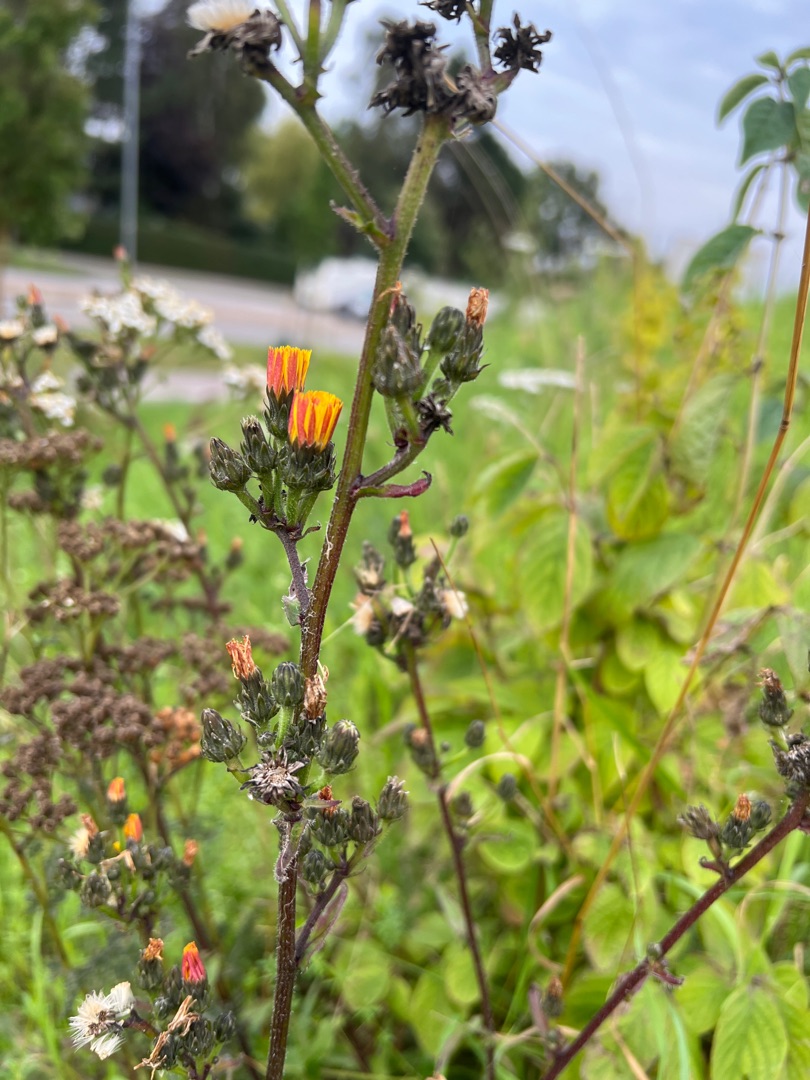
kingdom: Plantae
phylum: Tracheophyta
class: Magnoliopsida
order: Asterales
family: Asteraceae
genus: Picris
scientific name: Picris hieracioides
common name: Ru bittermælk
